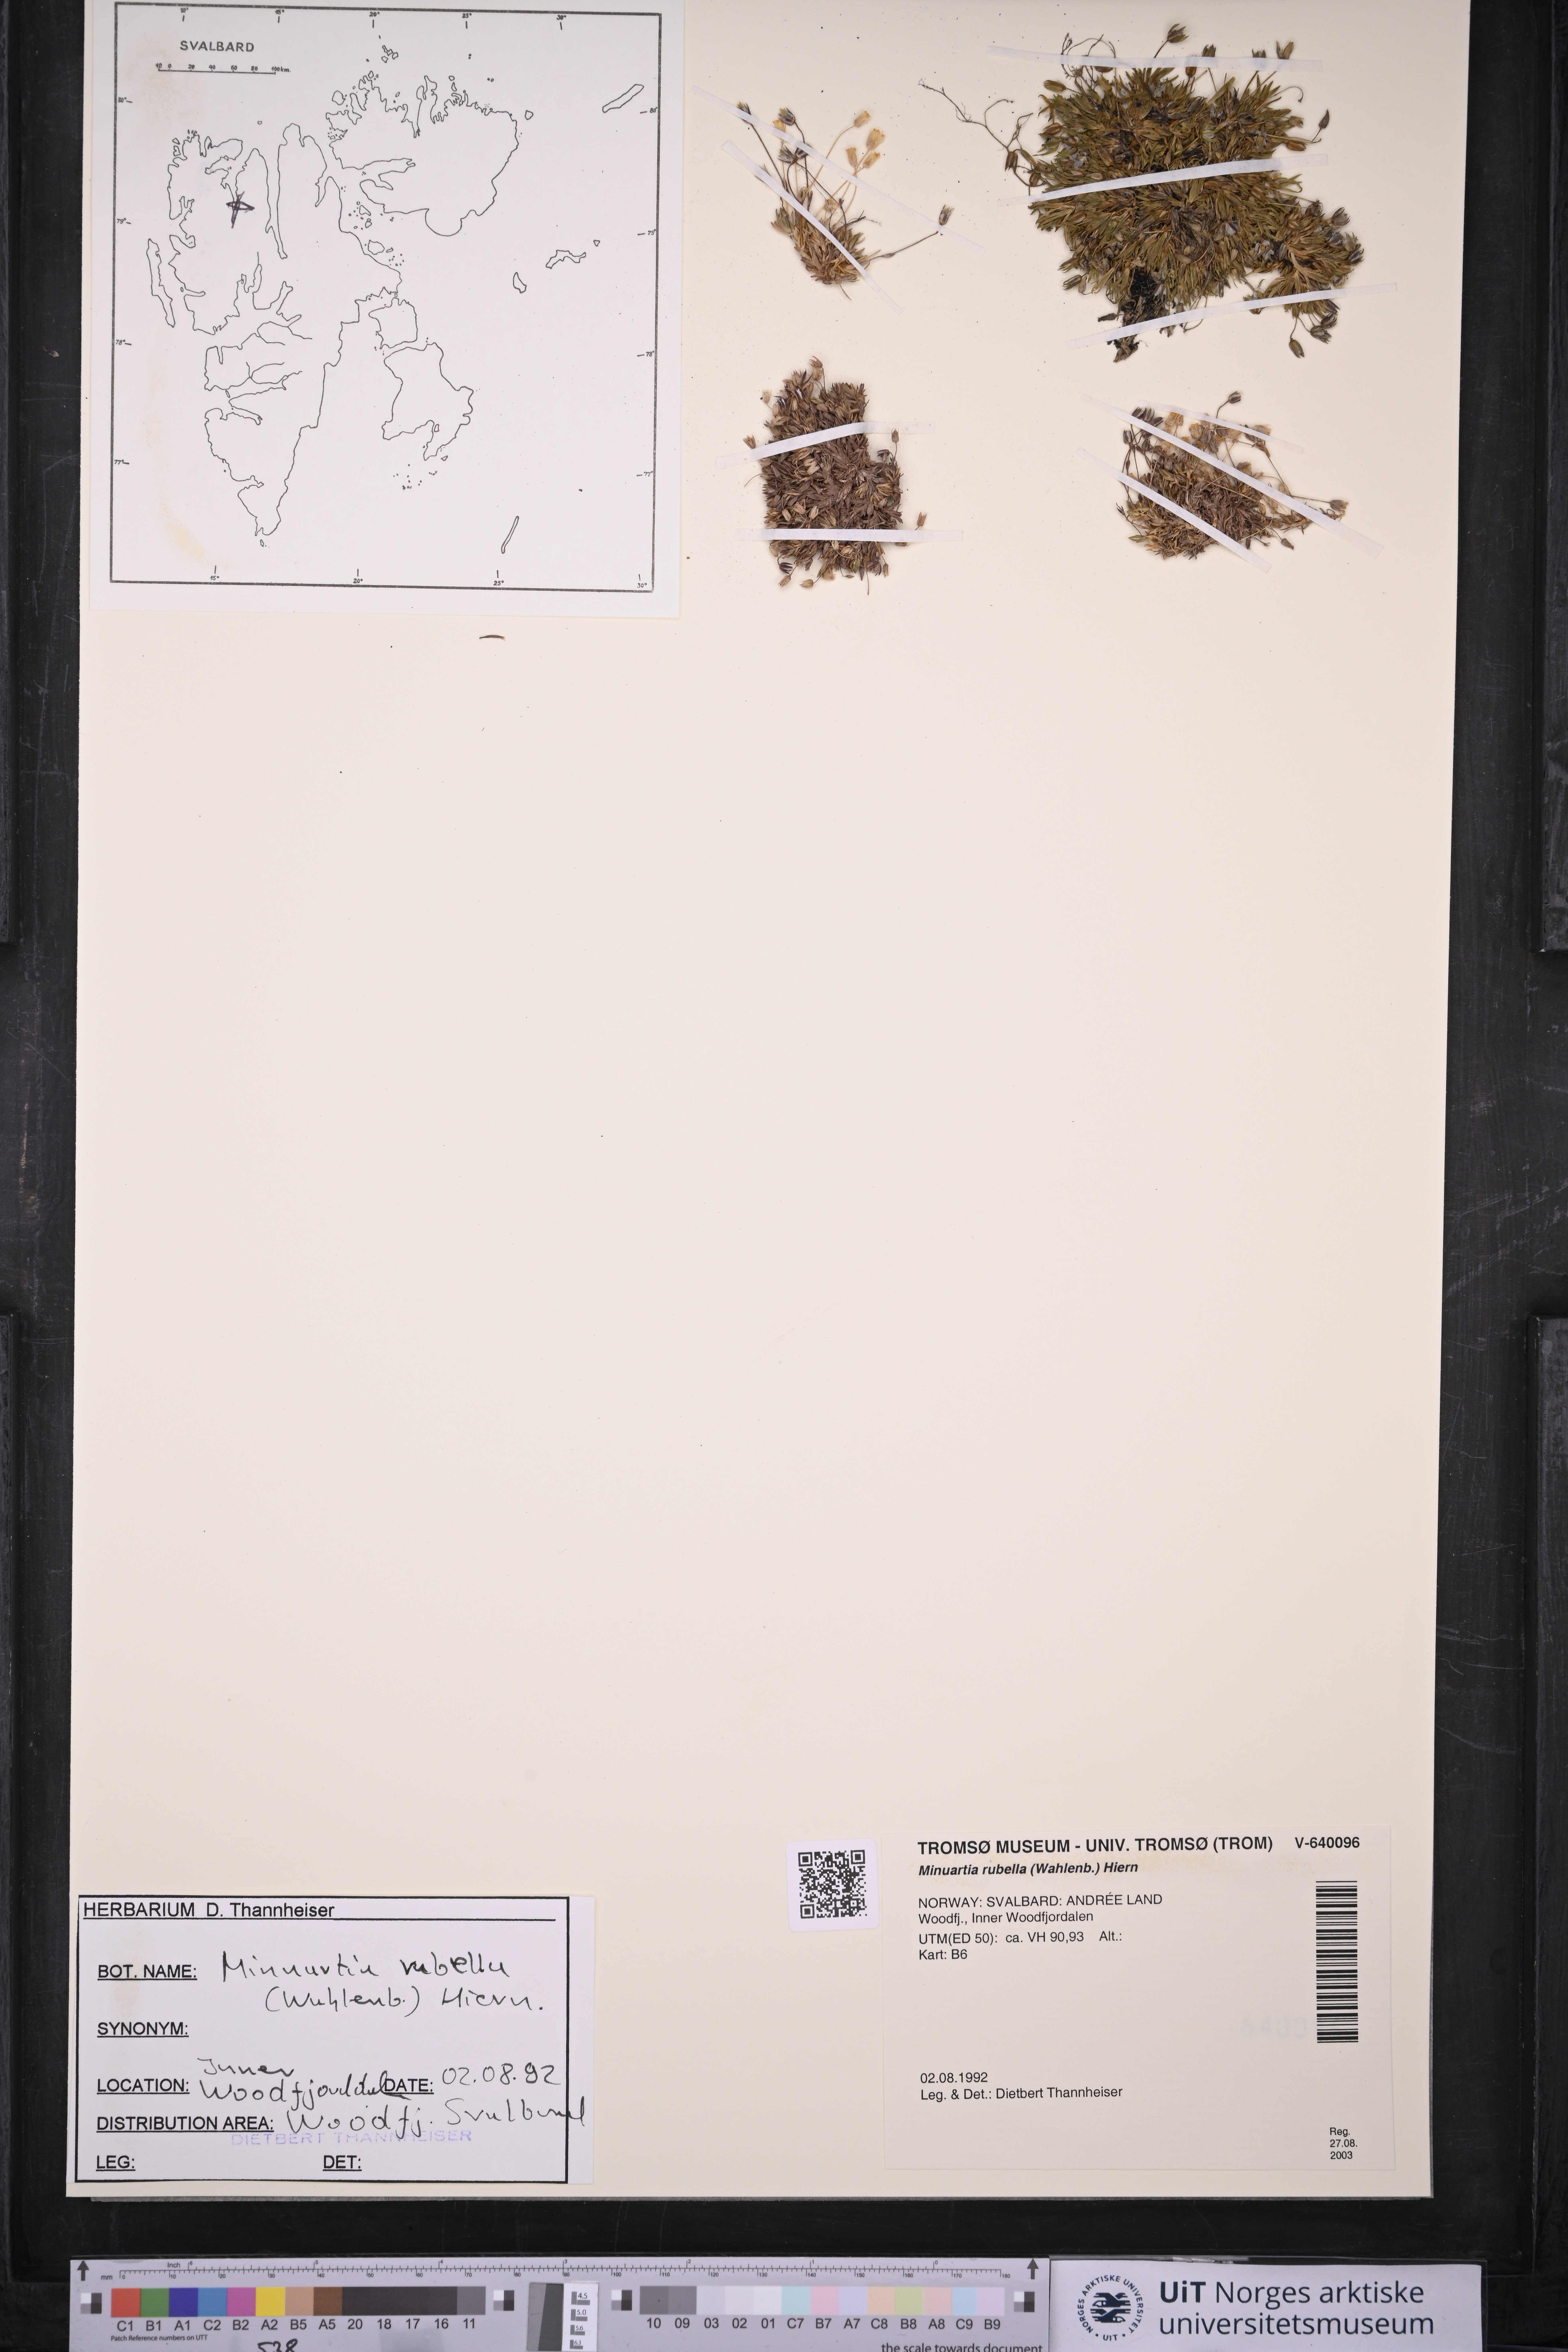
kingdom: Plantae
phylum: Tracheophyta
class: Magnoliopsida
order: Caryophyllales
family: Caryophyllaceae
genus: Sabulina
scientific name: Sabulina rubella
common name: Beautiful sandwort
